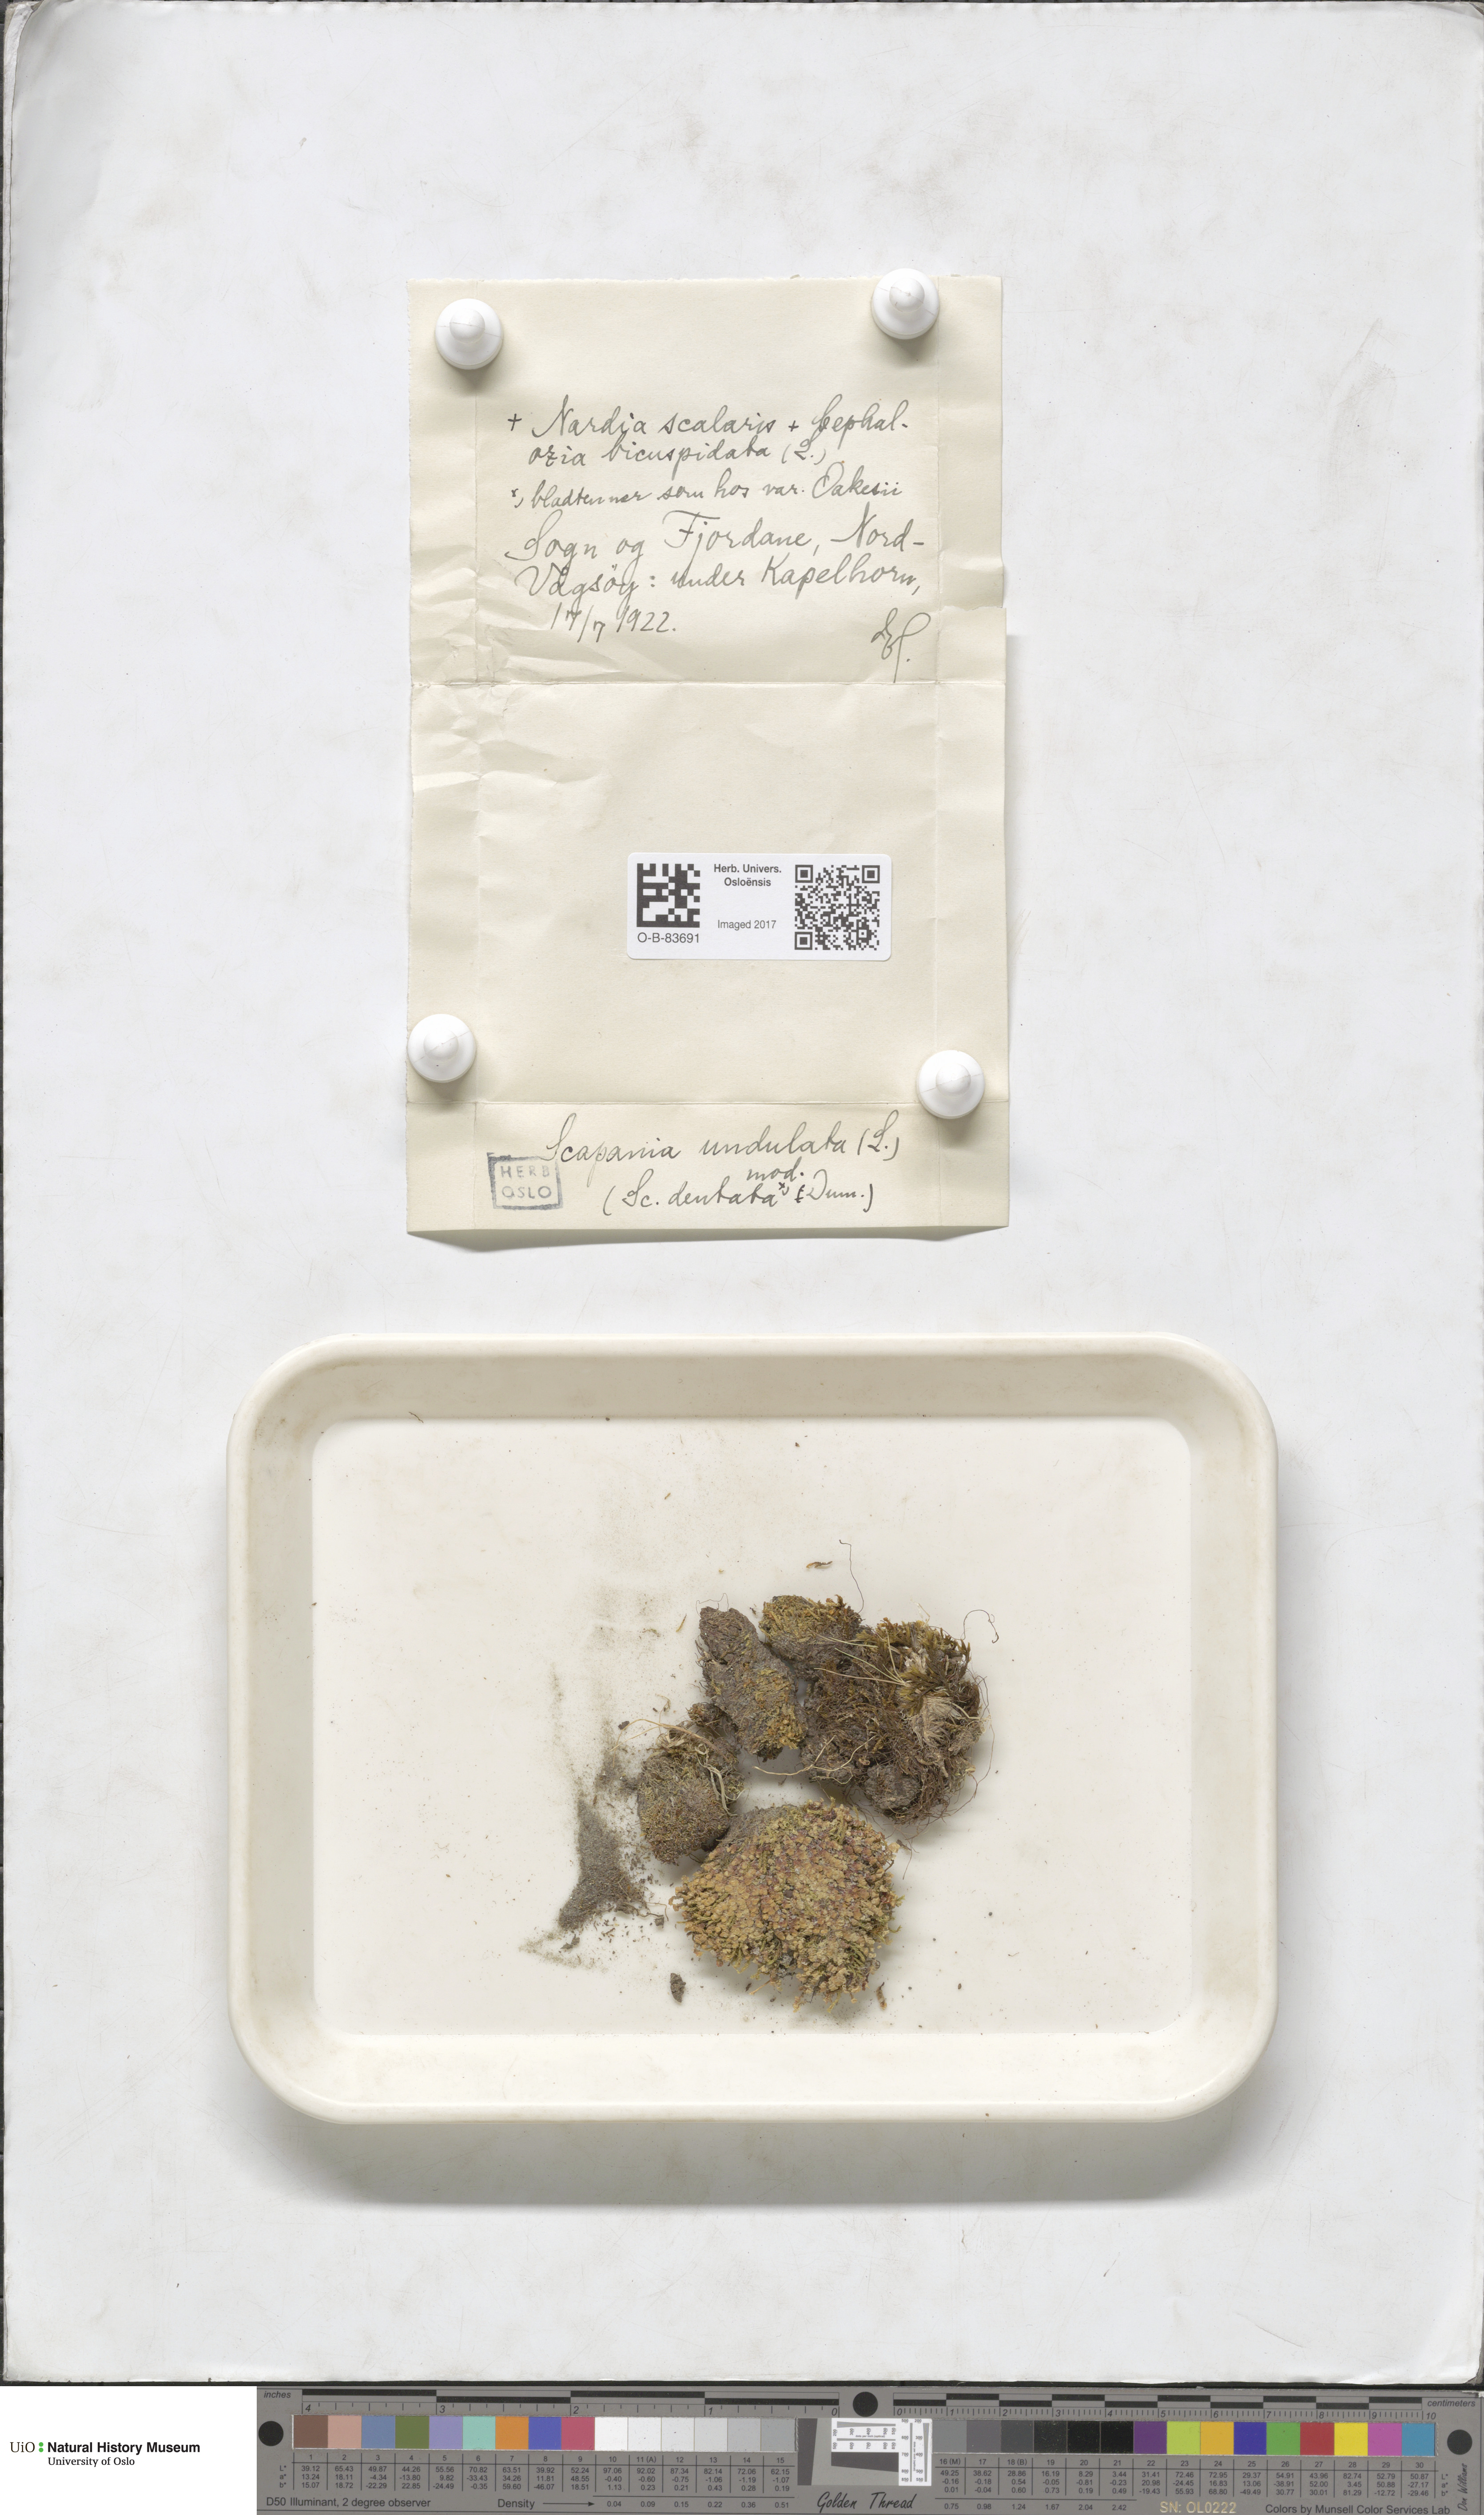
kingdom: Plantae
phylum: Marchantiophyta
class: Jungermanniopsida
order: Jungermanniales
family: Scapaniaceae
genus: Scapania
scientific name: Scapania undulata
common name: Water earwort
